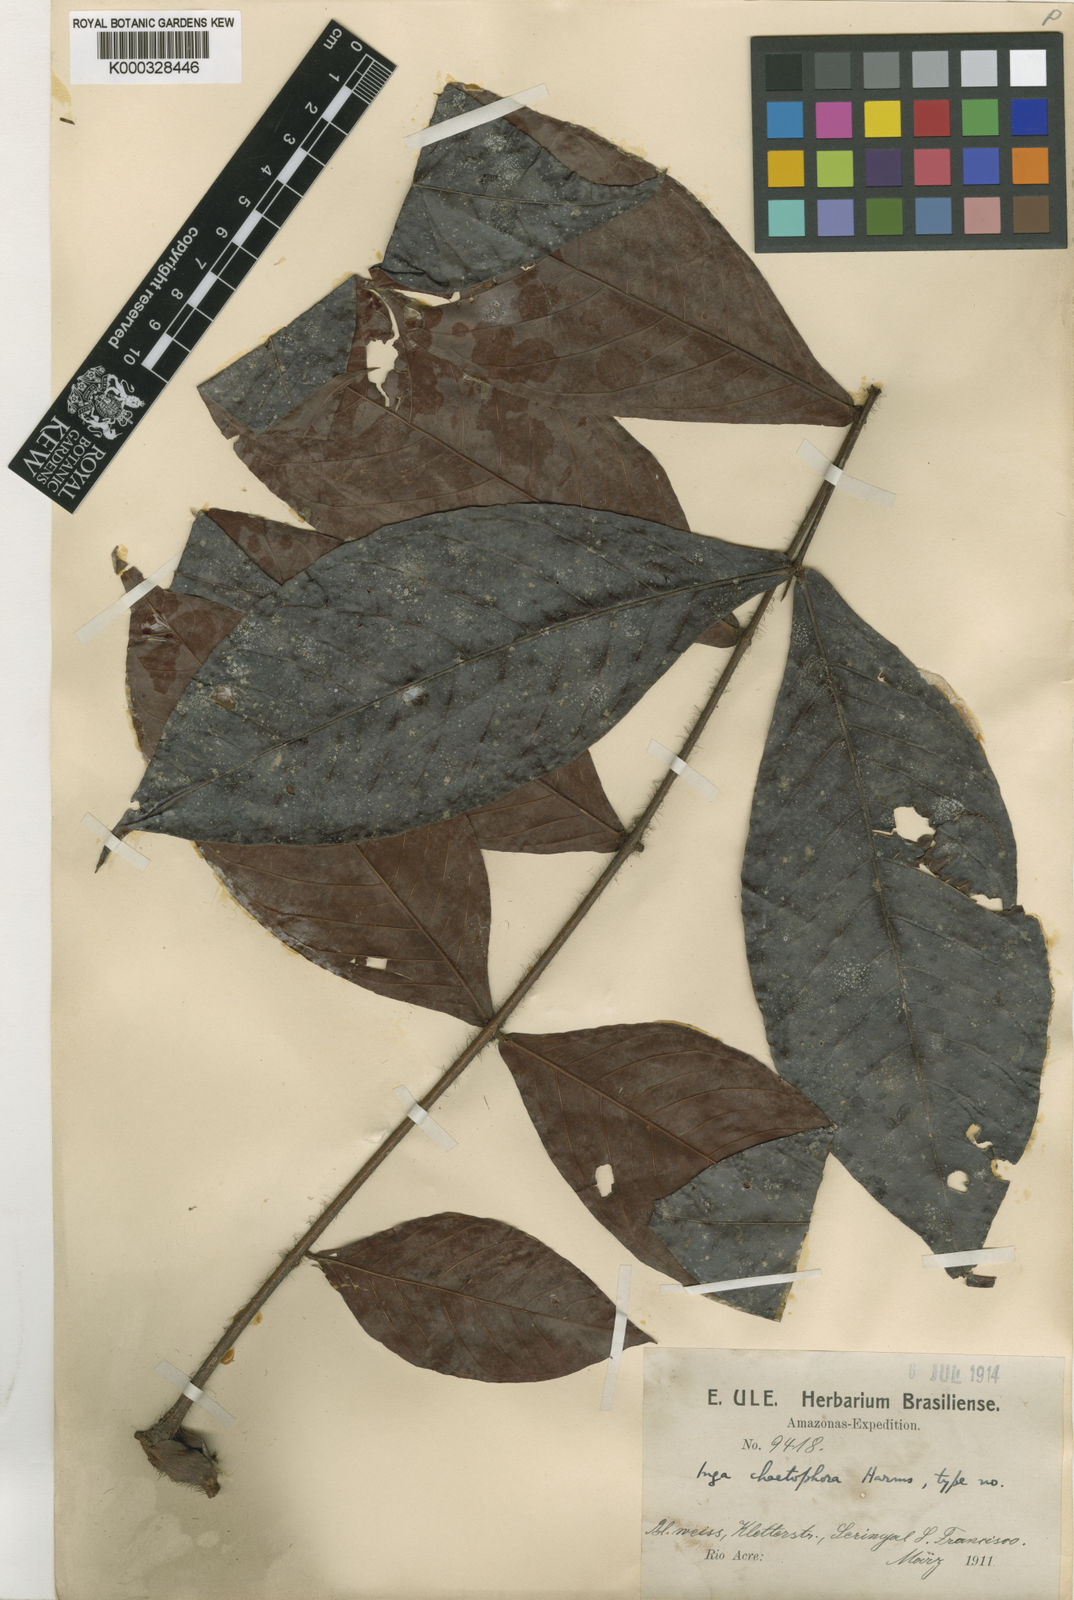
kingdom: Plantae
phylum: Tracheophyta
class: Magnoliopsida
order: Fabales
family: Fabaceae
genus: Inga
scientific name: Inga stipulacea
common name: Stipulate inga
